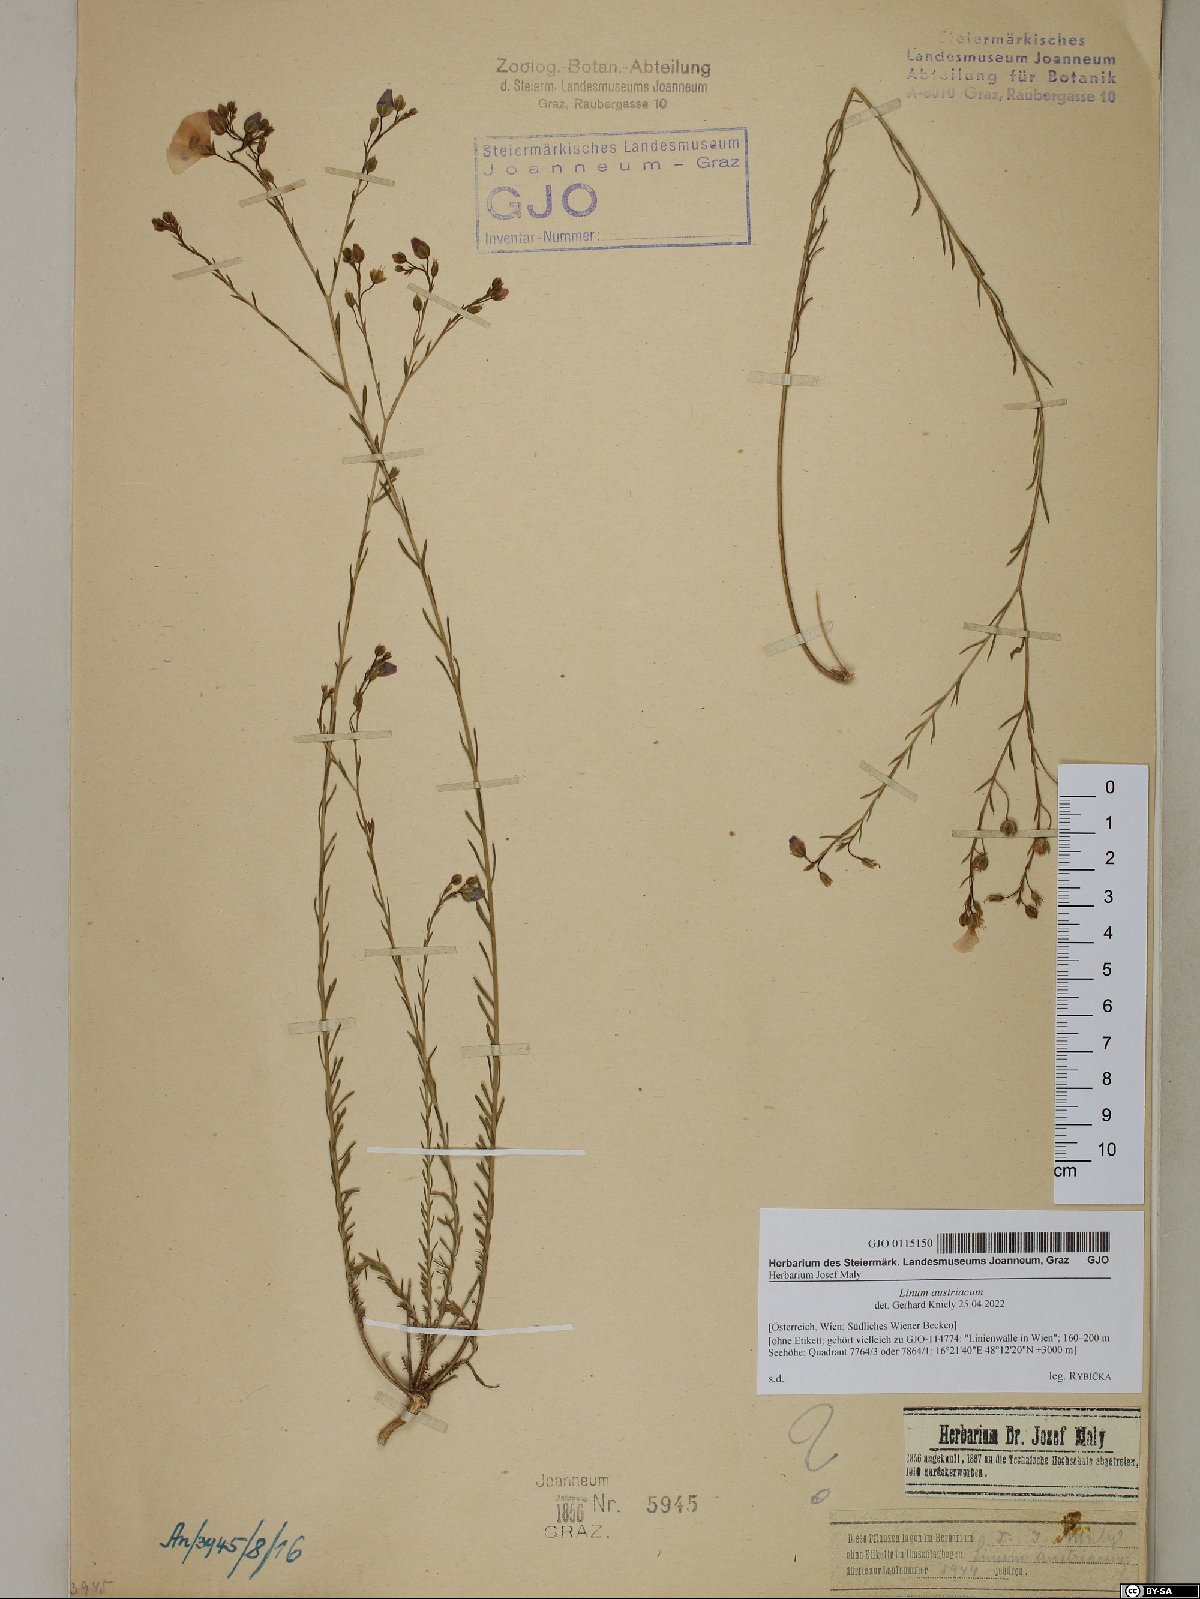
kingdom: Plantae
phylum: Tracheophyta
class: Magnoliopsida
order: Malpighiales
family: Linaceae
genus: Linum
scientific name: Linum austriacum
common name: Austrian flax
